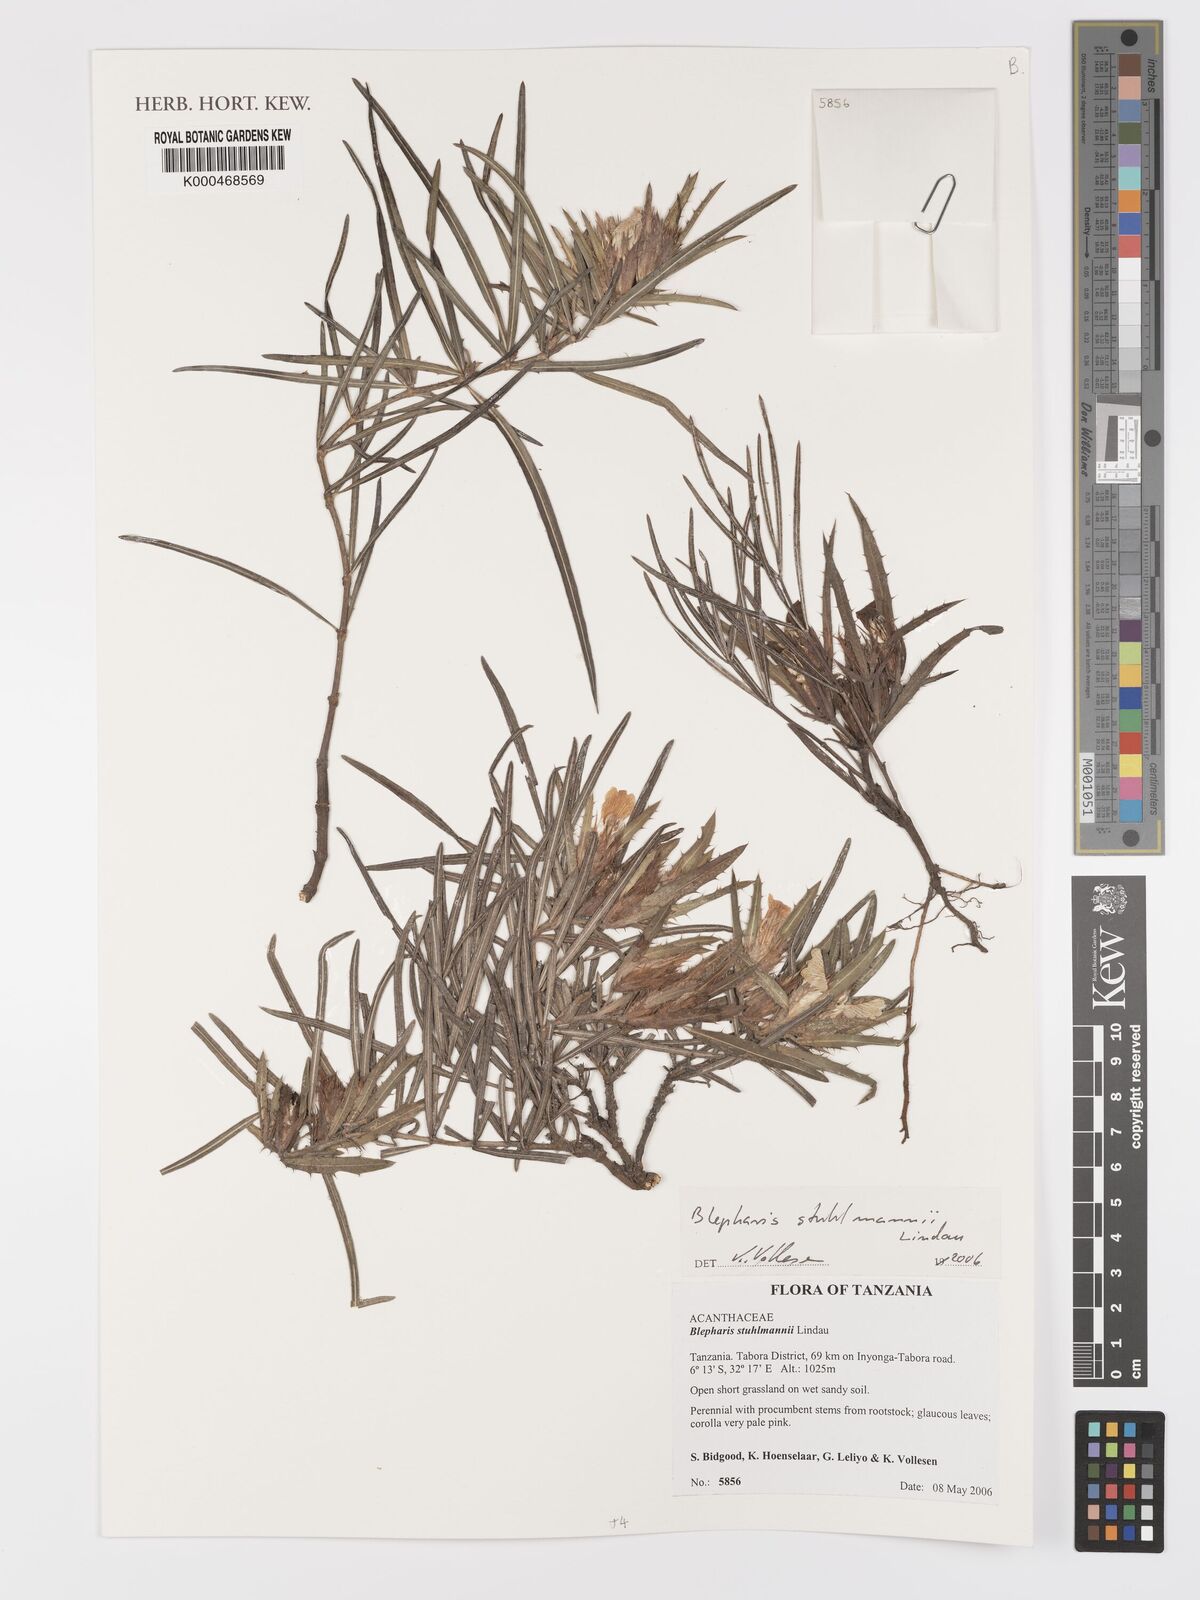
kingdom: Plantae
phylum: Tracheophyta
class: Magnoliopsida
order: Lamiales
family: Acanthaceae
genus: Blepharis
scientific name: Blepharis stuhlmannii
